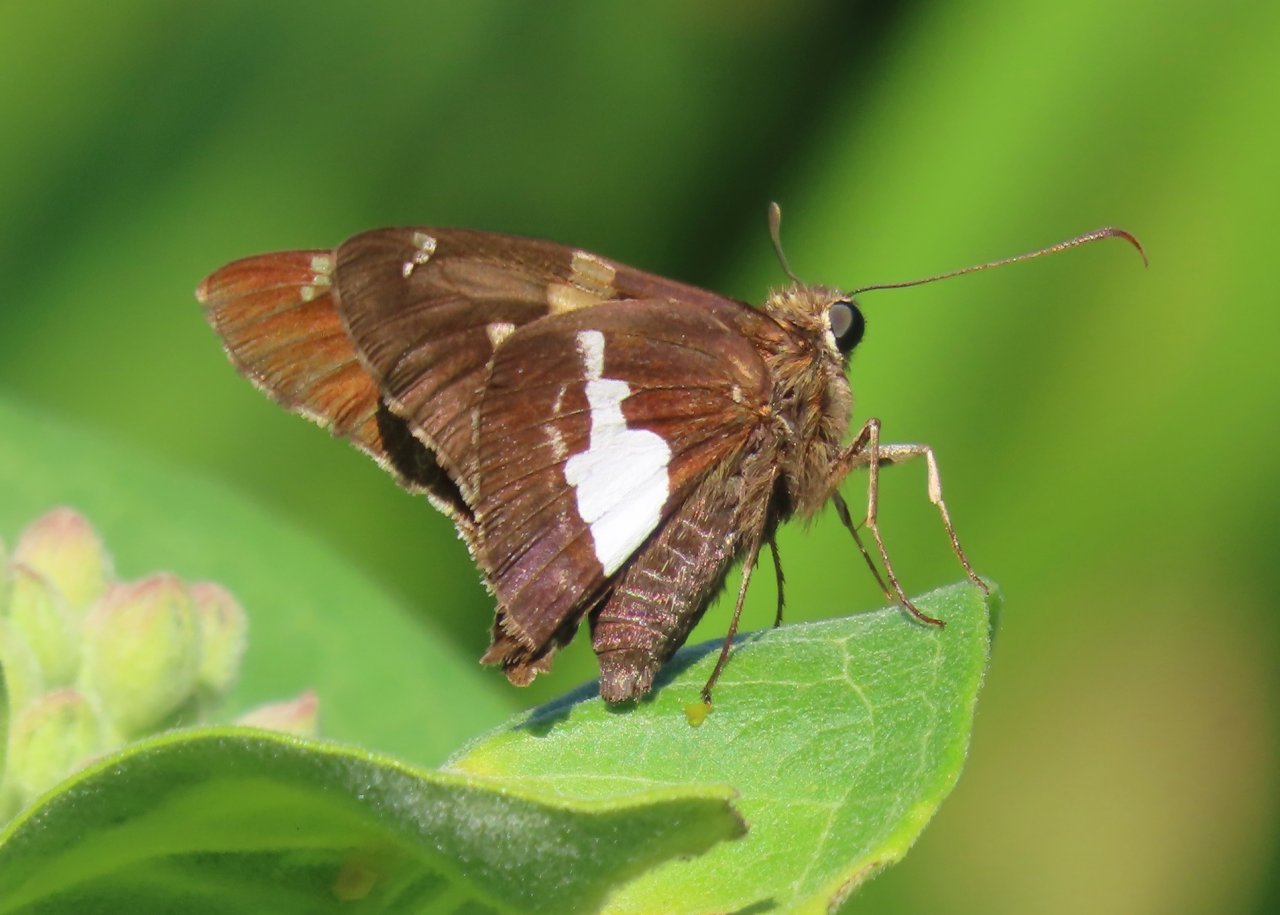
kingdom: Animalia
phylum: Arthropoda
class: Insecta
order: Lepidoptera
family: Hesperiidae
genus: Epargyreus
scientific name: Epargyreus clarus
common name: Silver-spotted Skipper
